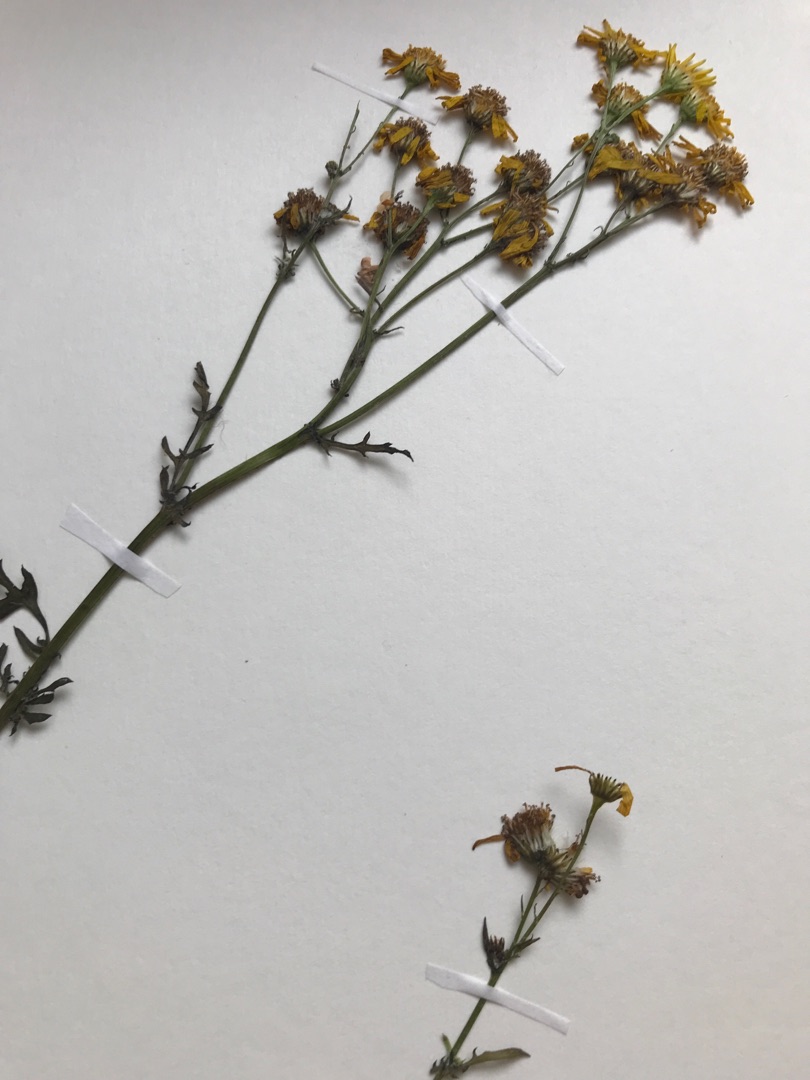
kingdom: Plantae
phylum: Tracheophyta
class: Magnoliopsida
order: Asterales
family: Asteraceae
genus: Jacobaea
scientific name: Jacobaea vulgaris
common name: Eng-brandbæger
